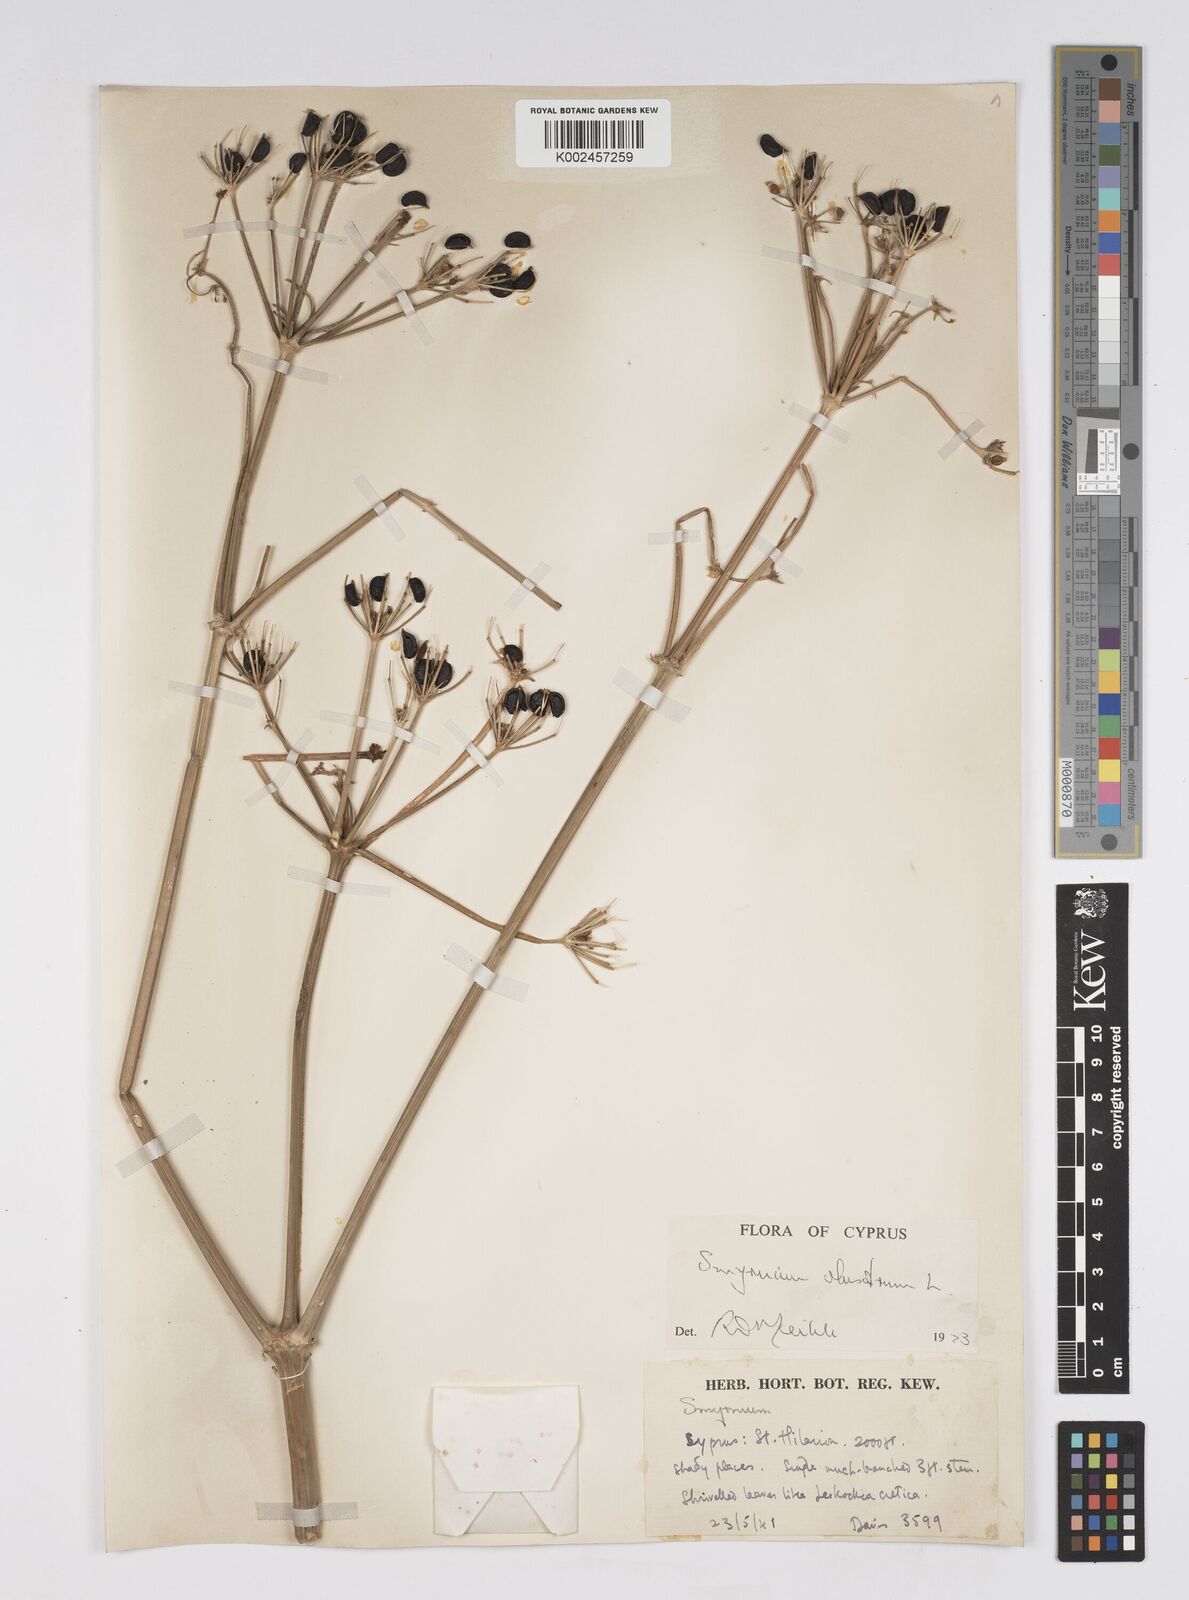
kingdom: Plantae
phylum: Tracheophyta
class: Magnoliopsida
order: Apiales
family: Apiaceae
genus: Smyrnium
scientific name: Smyrnium olusatrum
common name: Alexanders
